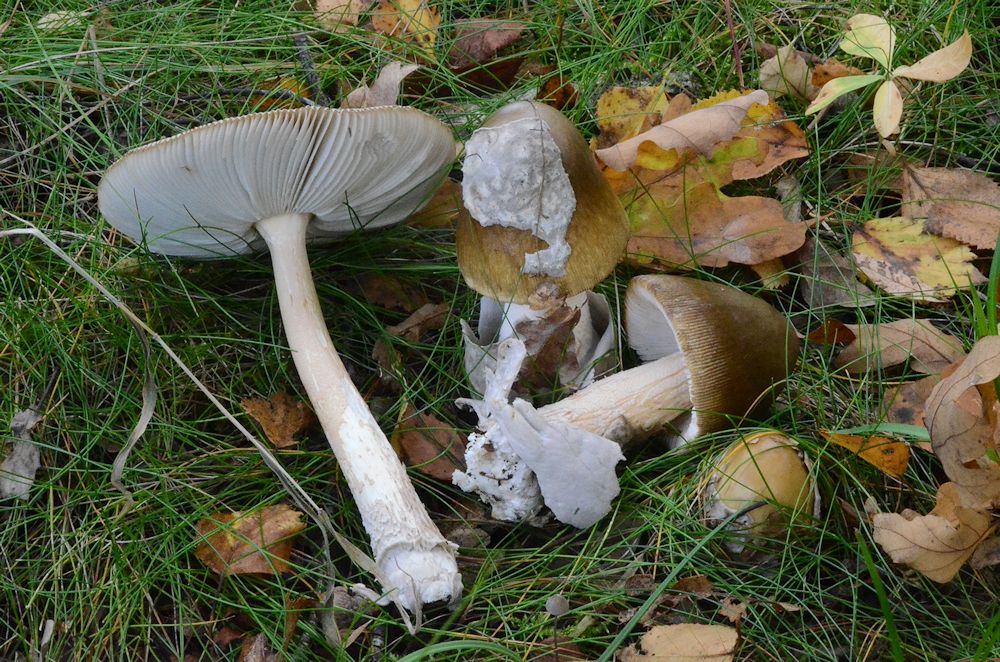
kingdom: Fungi
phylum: Basidiomycota
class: Agaricomycetes
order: Agaricales
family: Amanitaceae
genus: Amanita
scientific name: Amanita submembranacea
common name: gråspættet kam-fluesvamp
